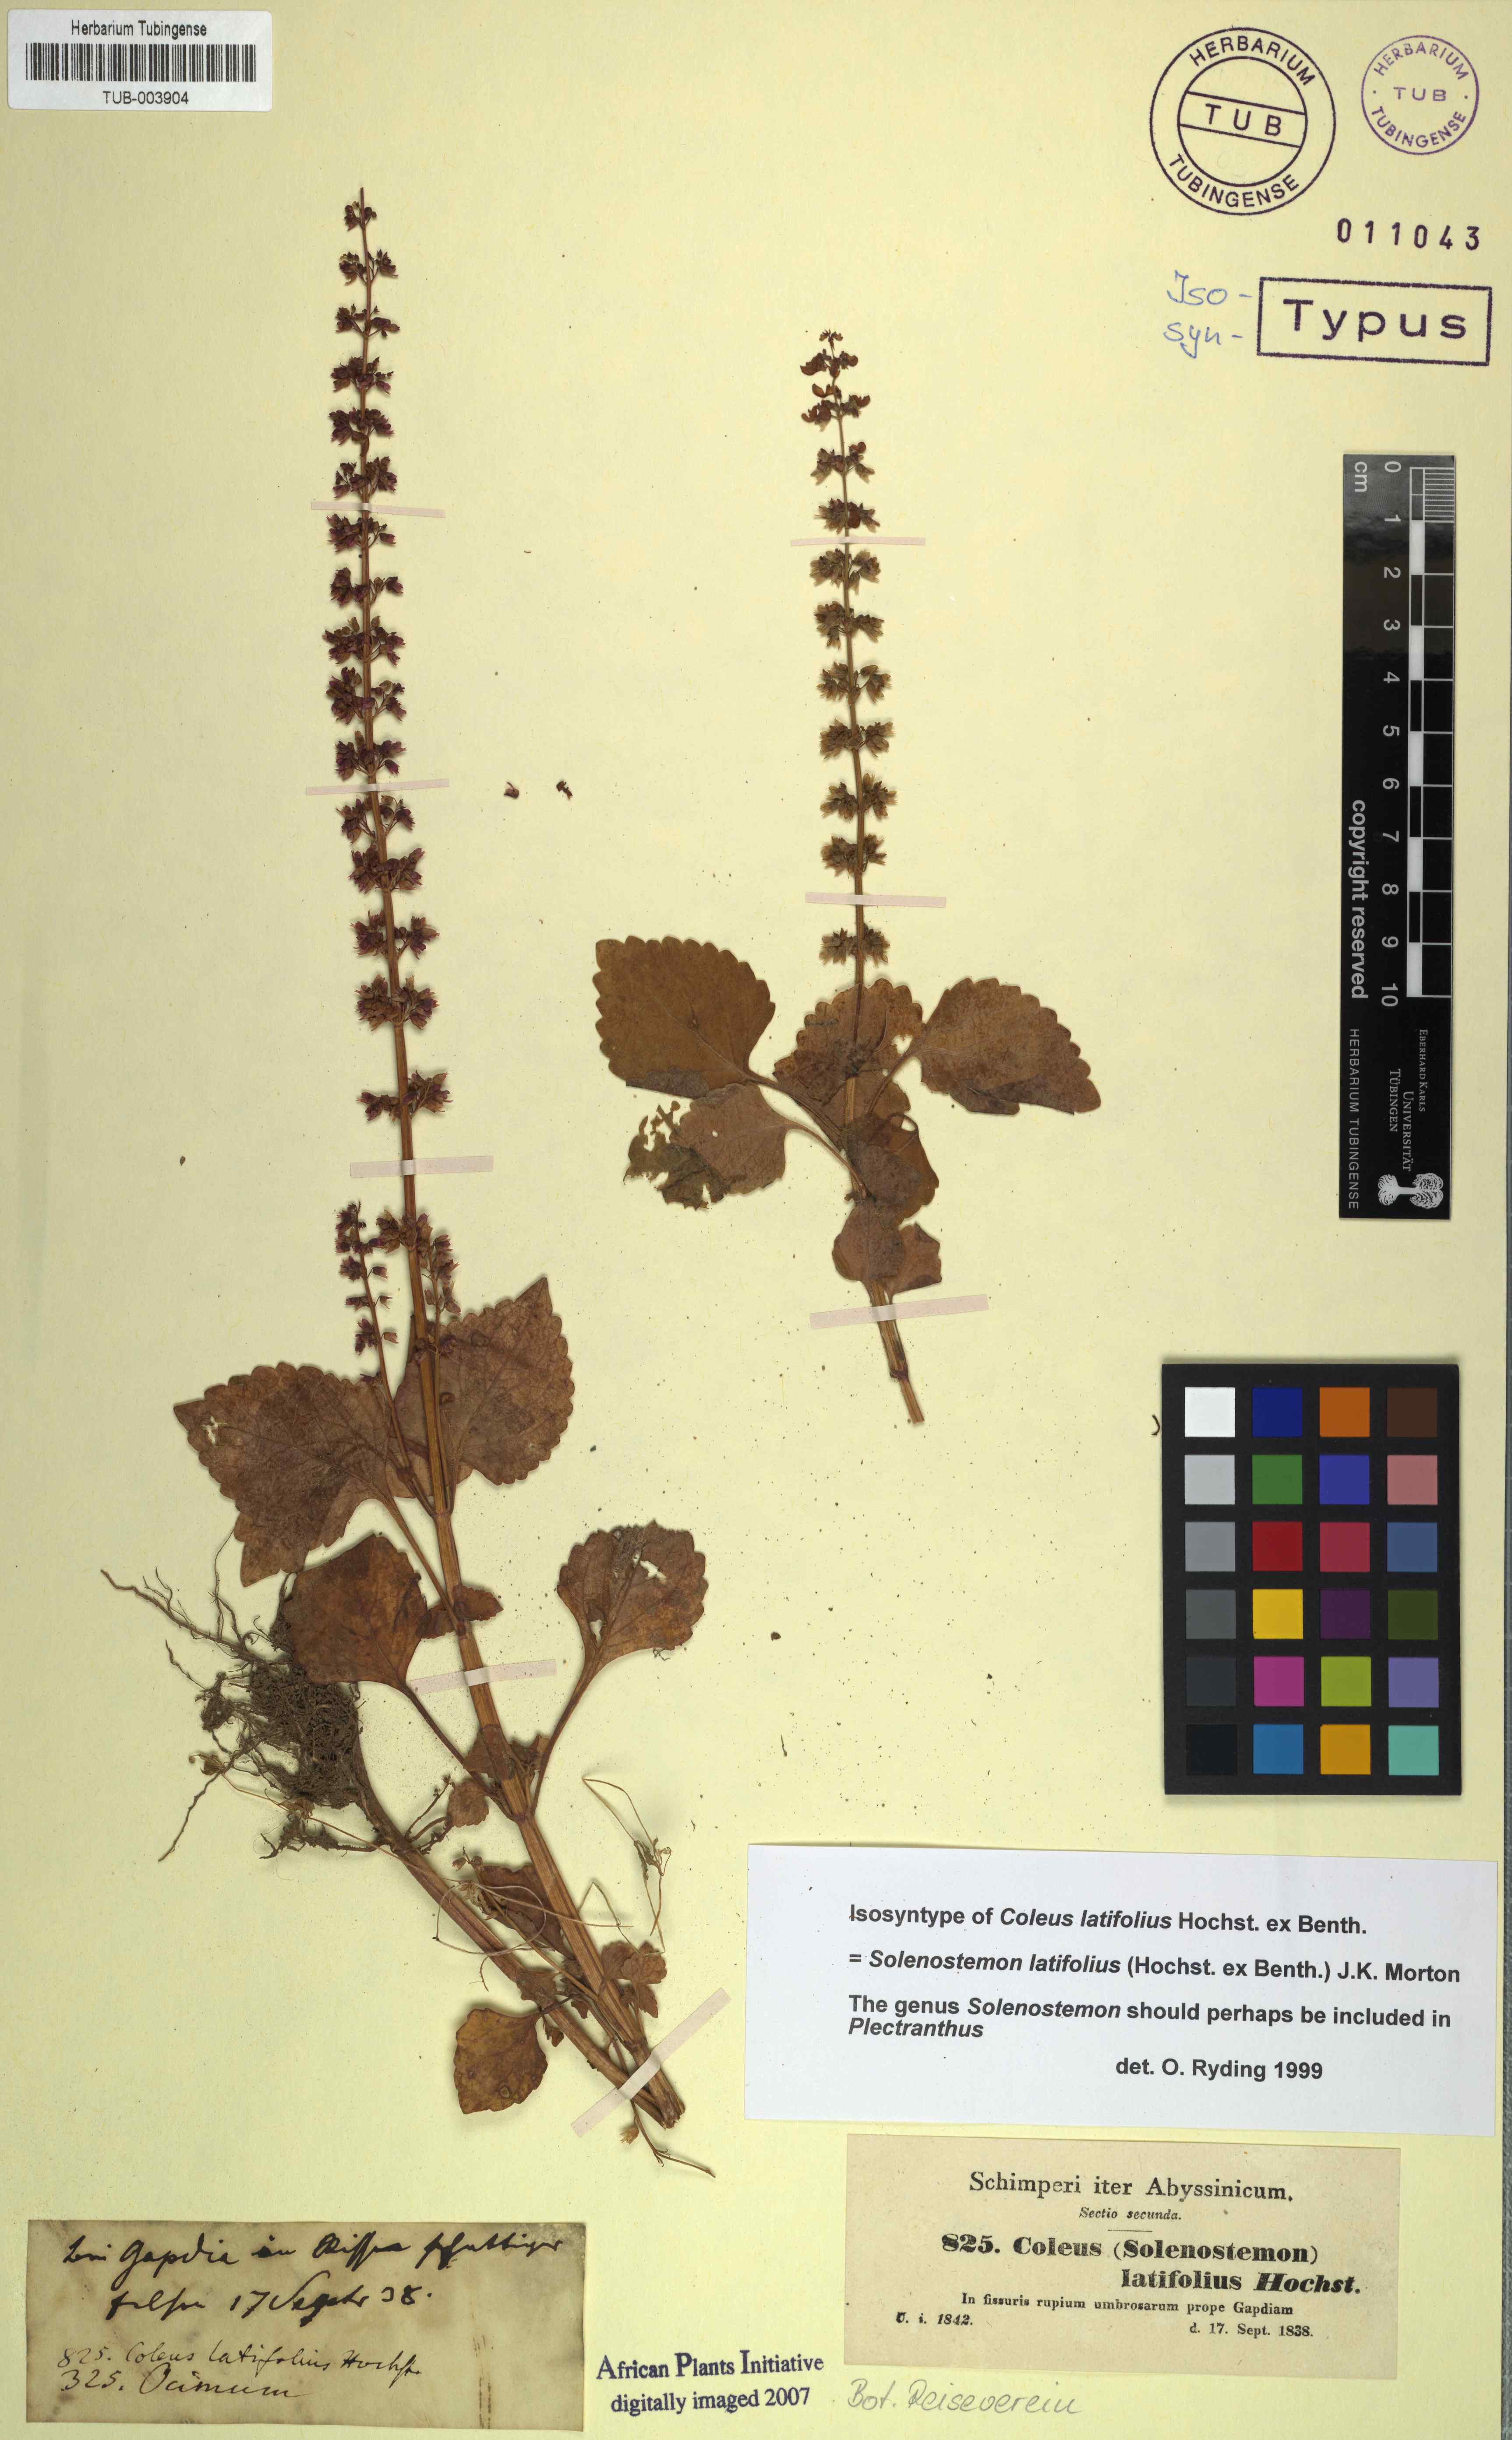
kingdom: Plantae
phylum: Tracheophyta
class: Magnoliopsida
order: Lamiales
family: Lamiaceae
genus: Coleus
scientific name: Coleus bojeri
